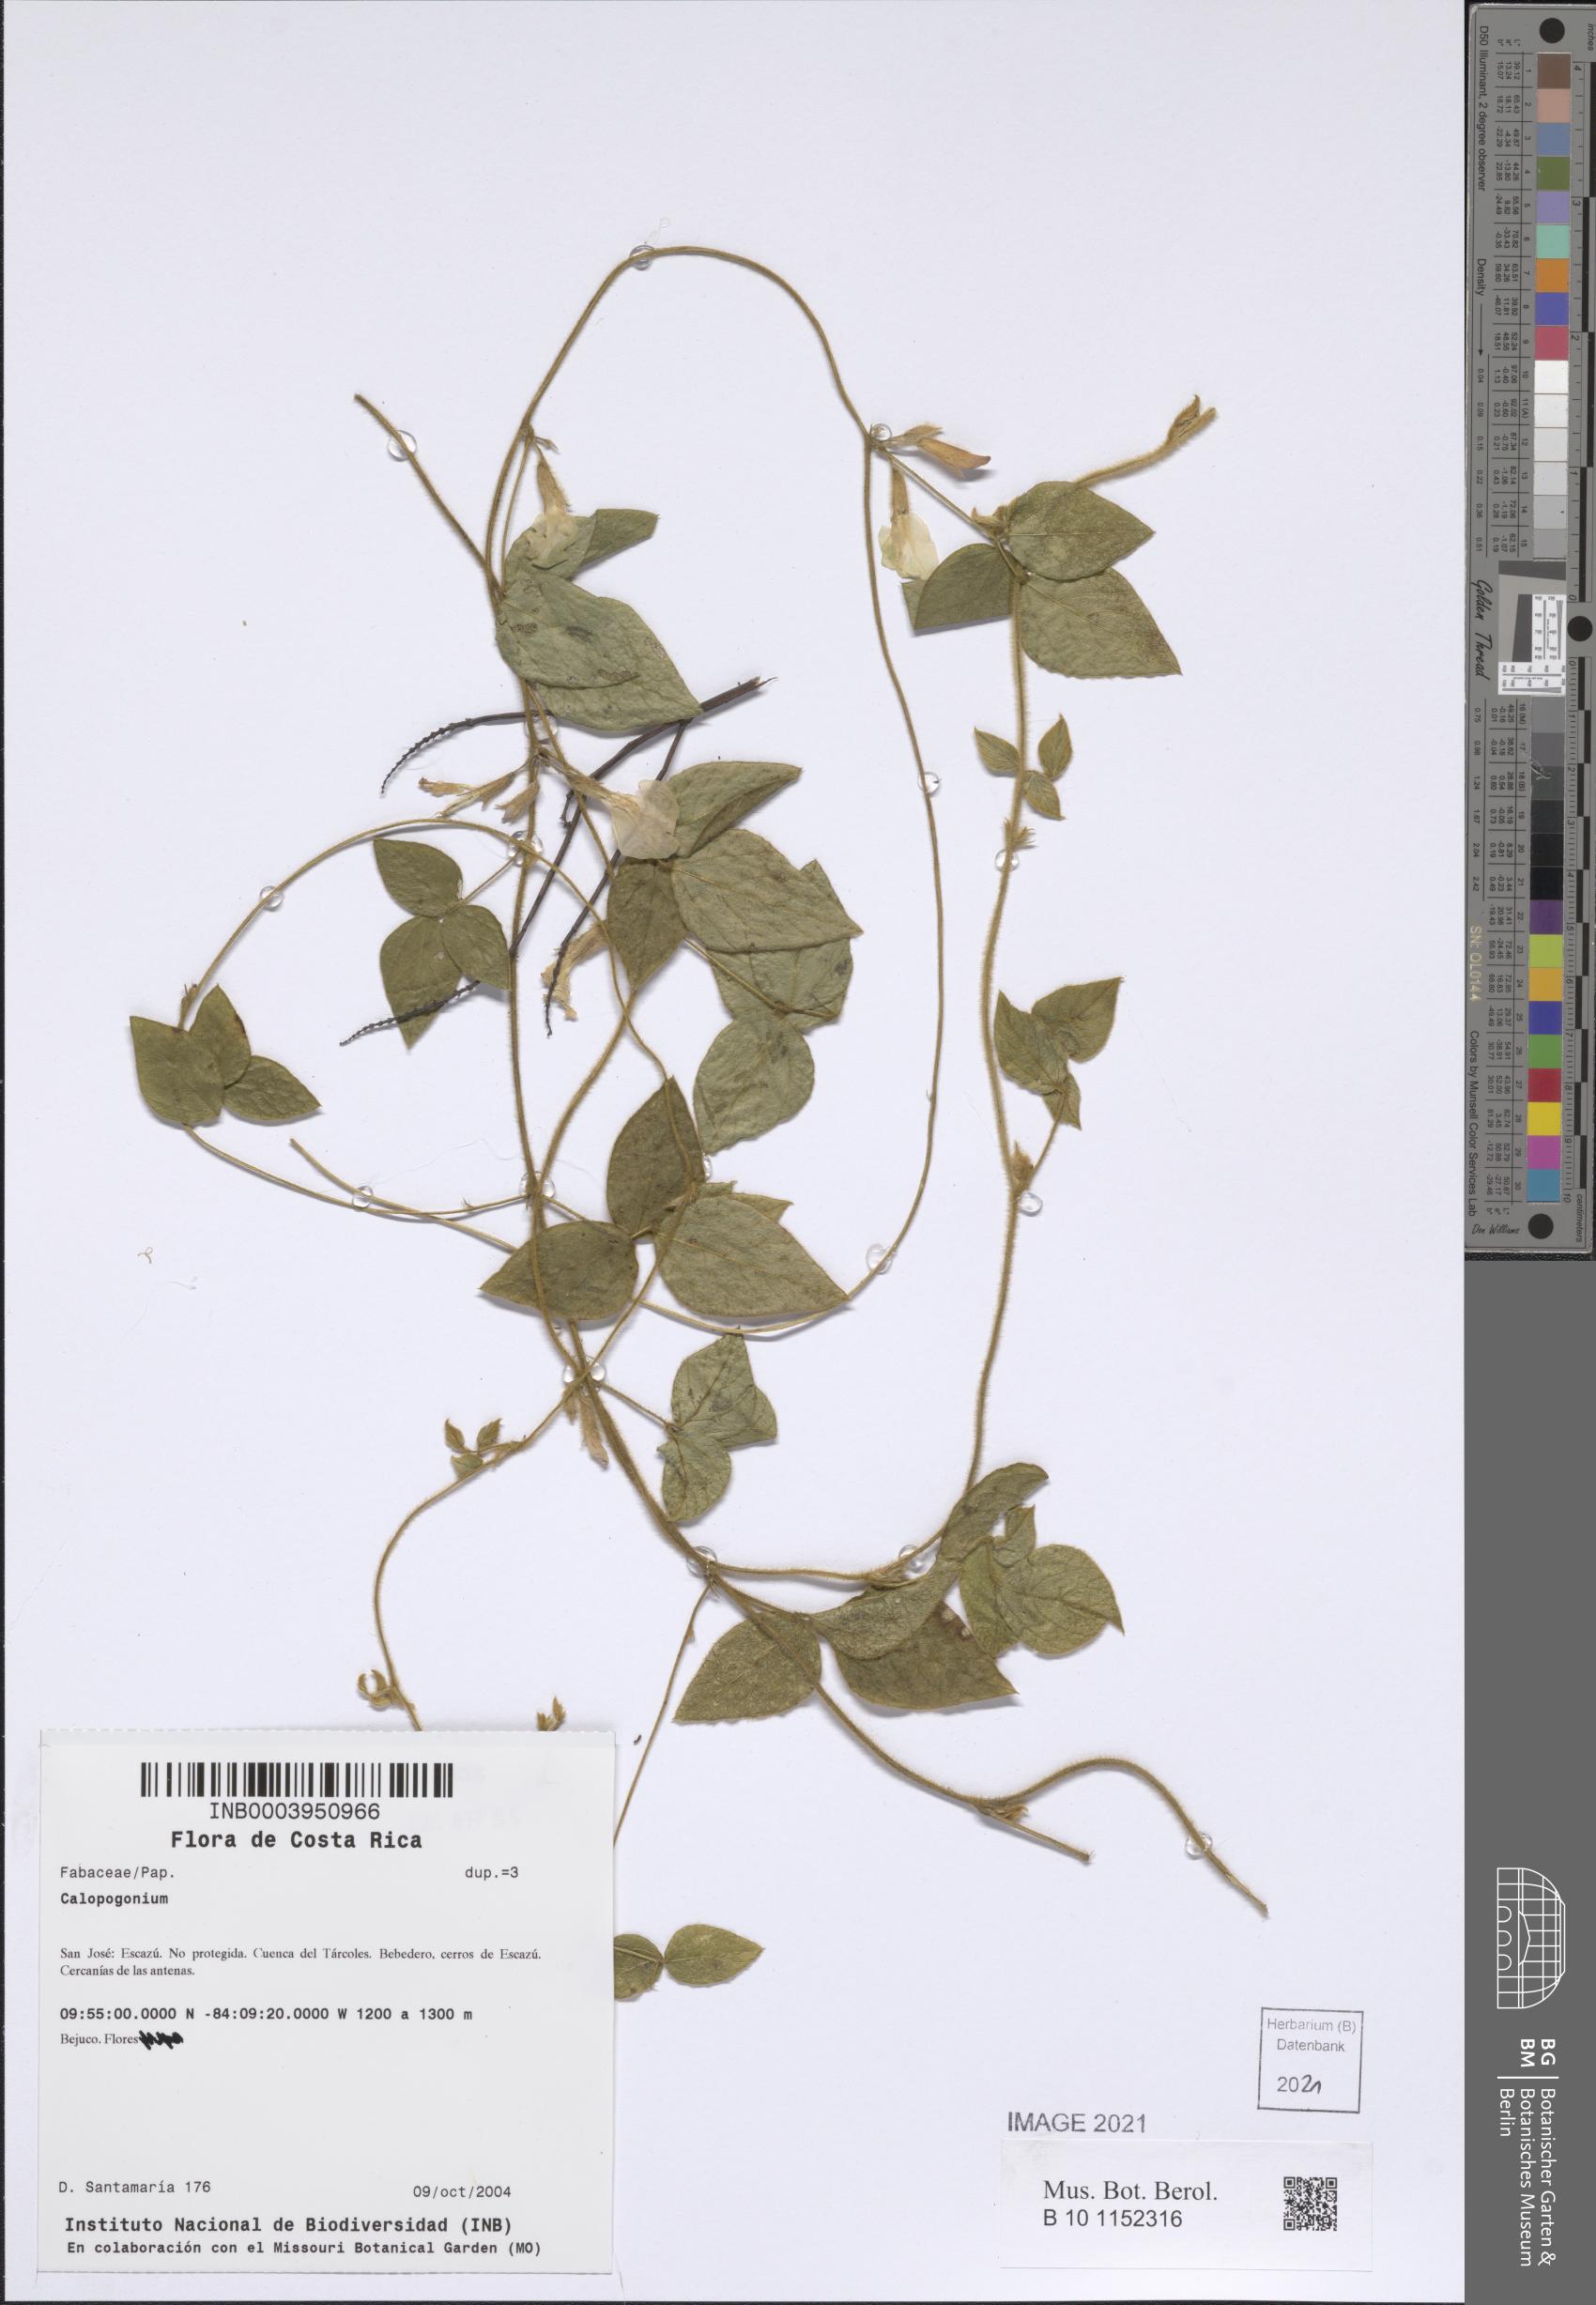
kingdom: Plantae
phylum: Tracheophyta
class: Magnoliopsida
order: Fabales
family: Fabaceae
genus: Calopogonium
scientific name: Calopogonium
